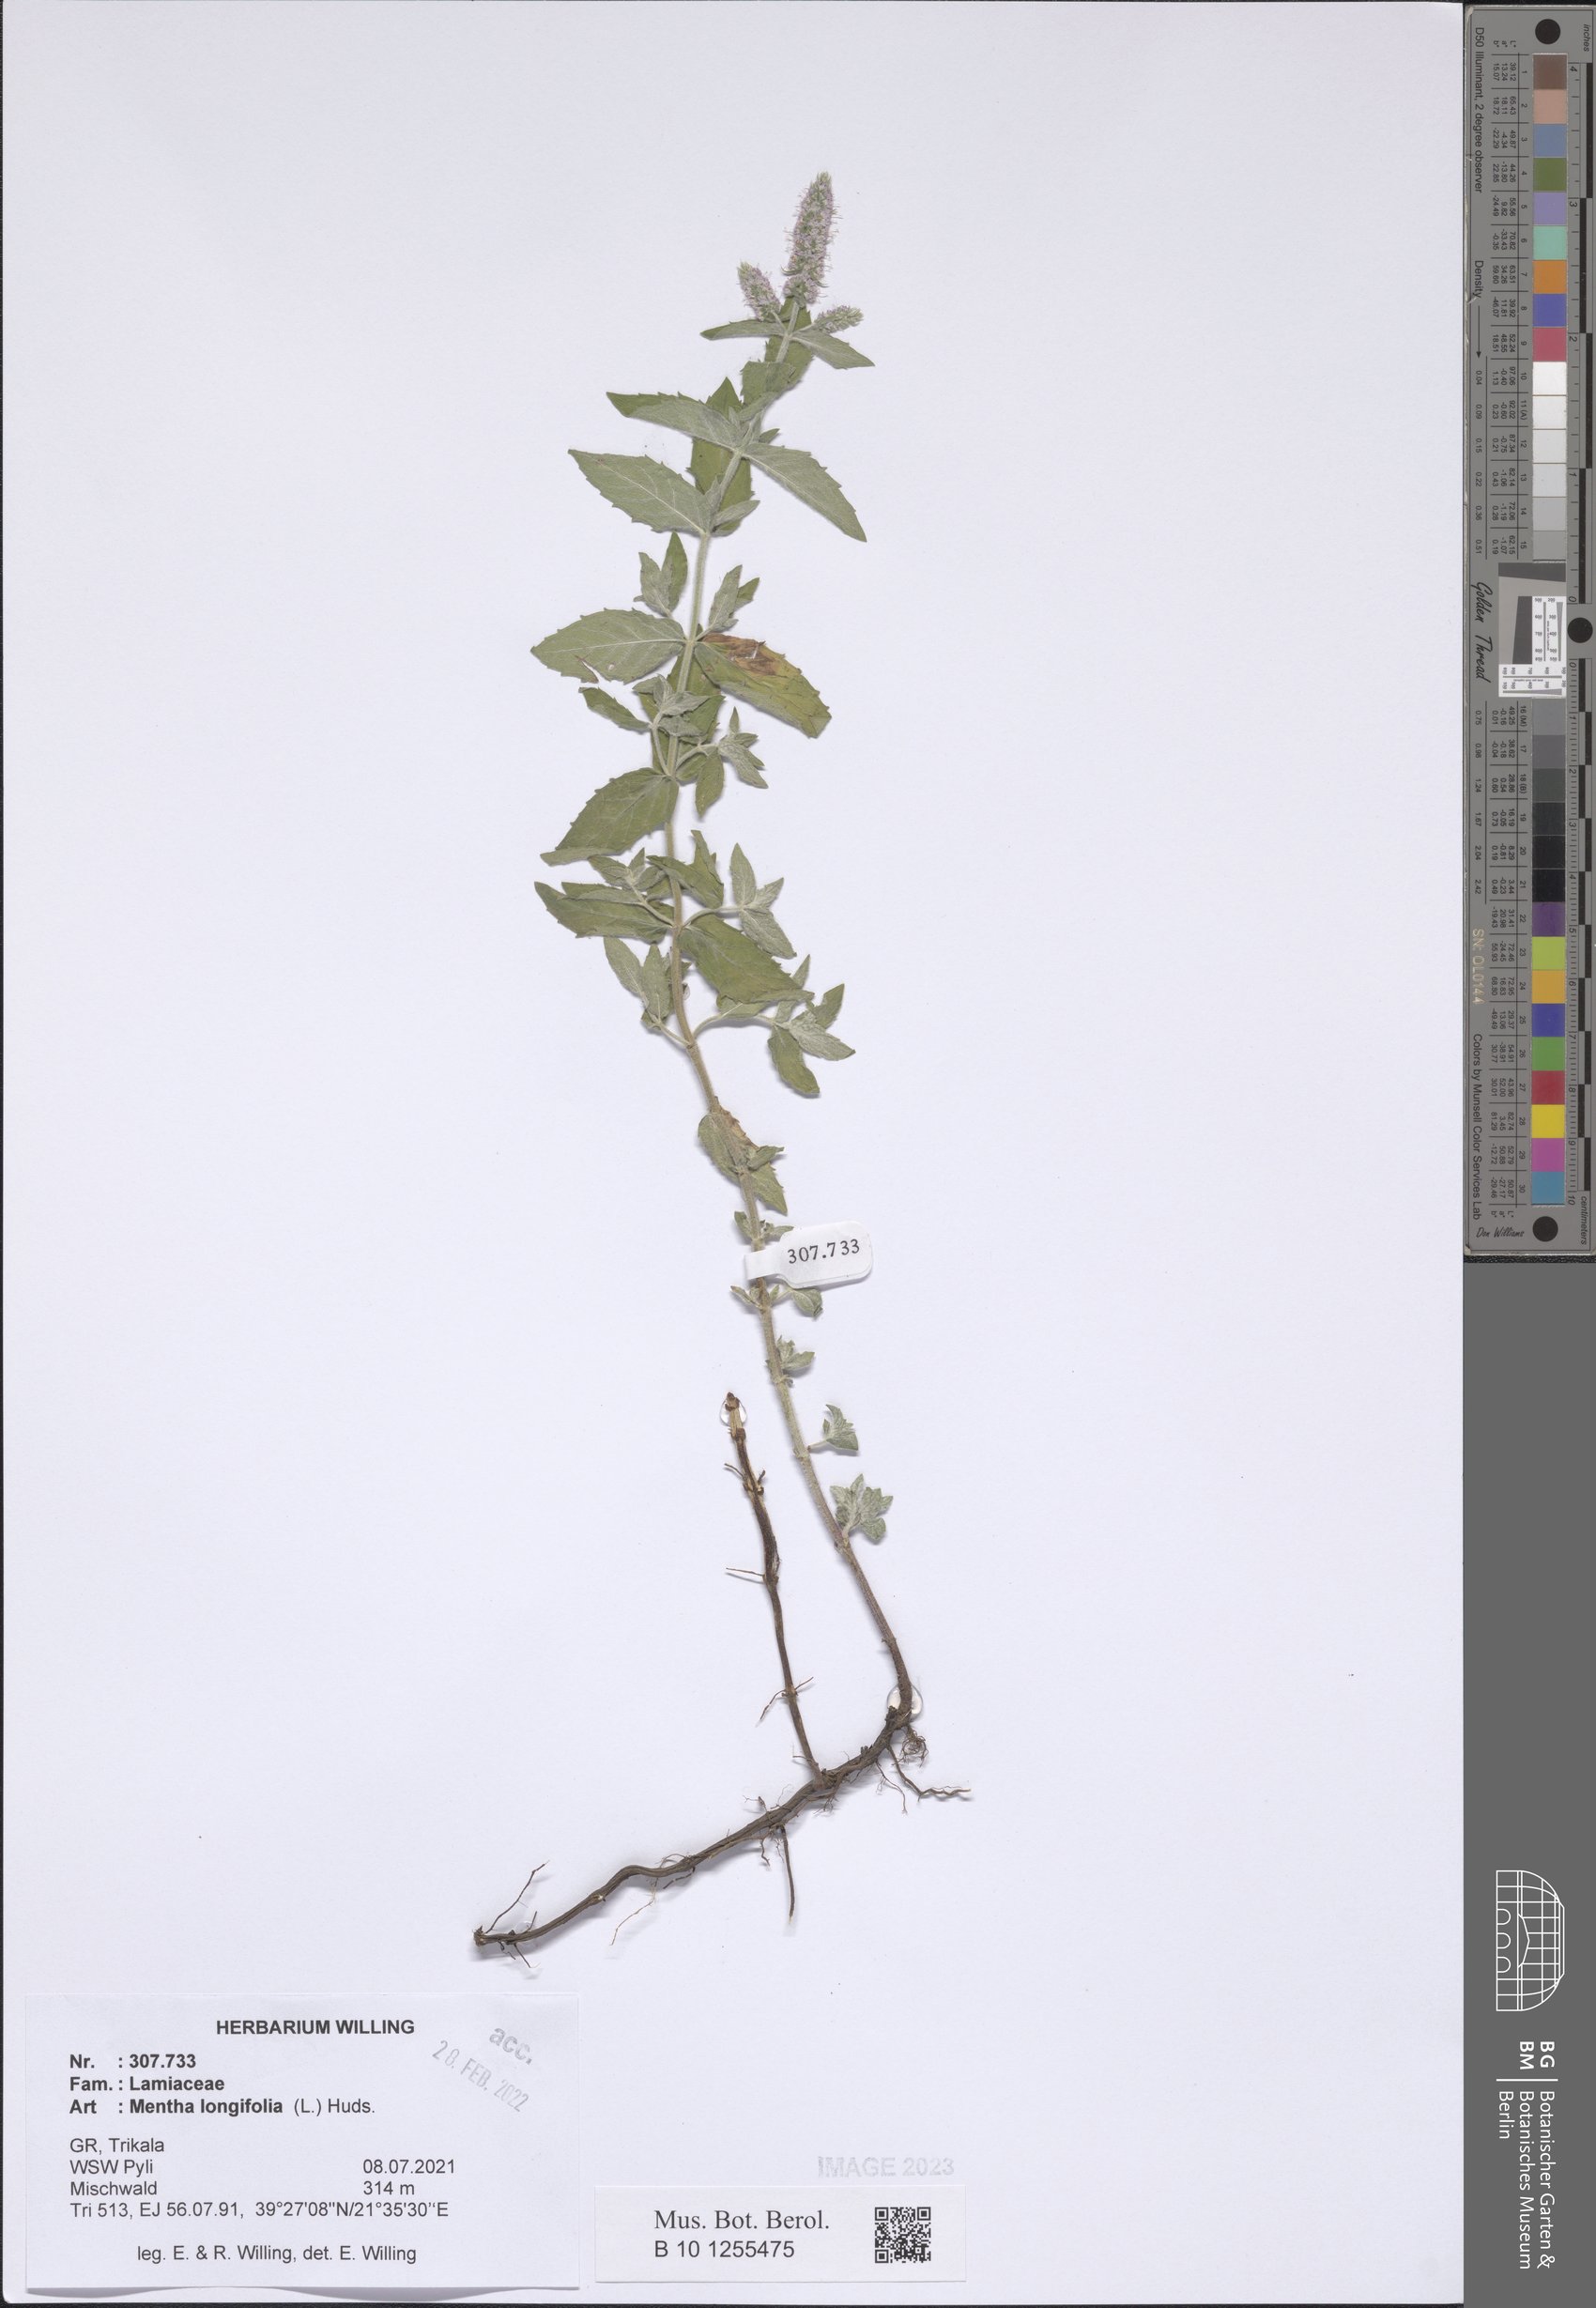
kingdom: Plantae
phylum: Tracheophyta
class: Magnoliopsida
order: Lamiales
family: Lamiaceae
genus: Mentha
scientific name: Mentha longifolia
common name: Horse mint
